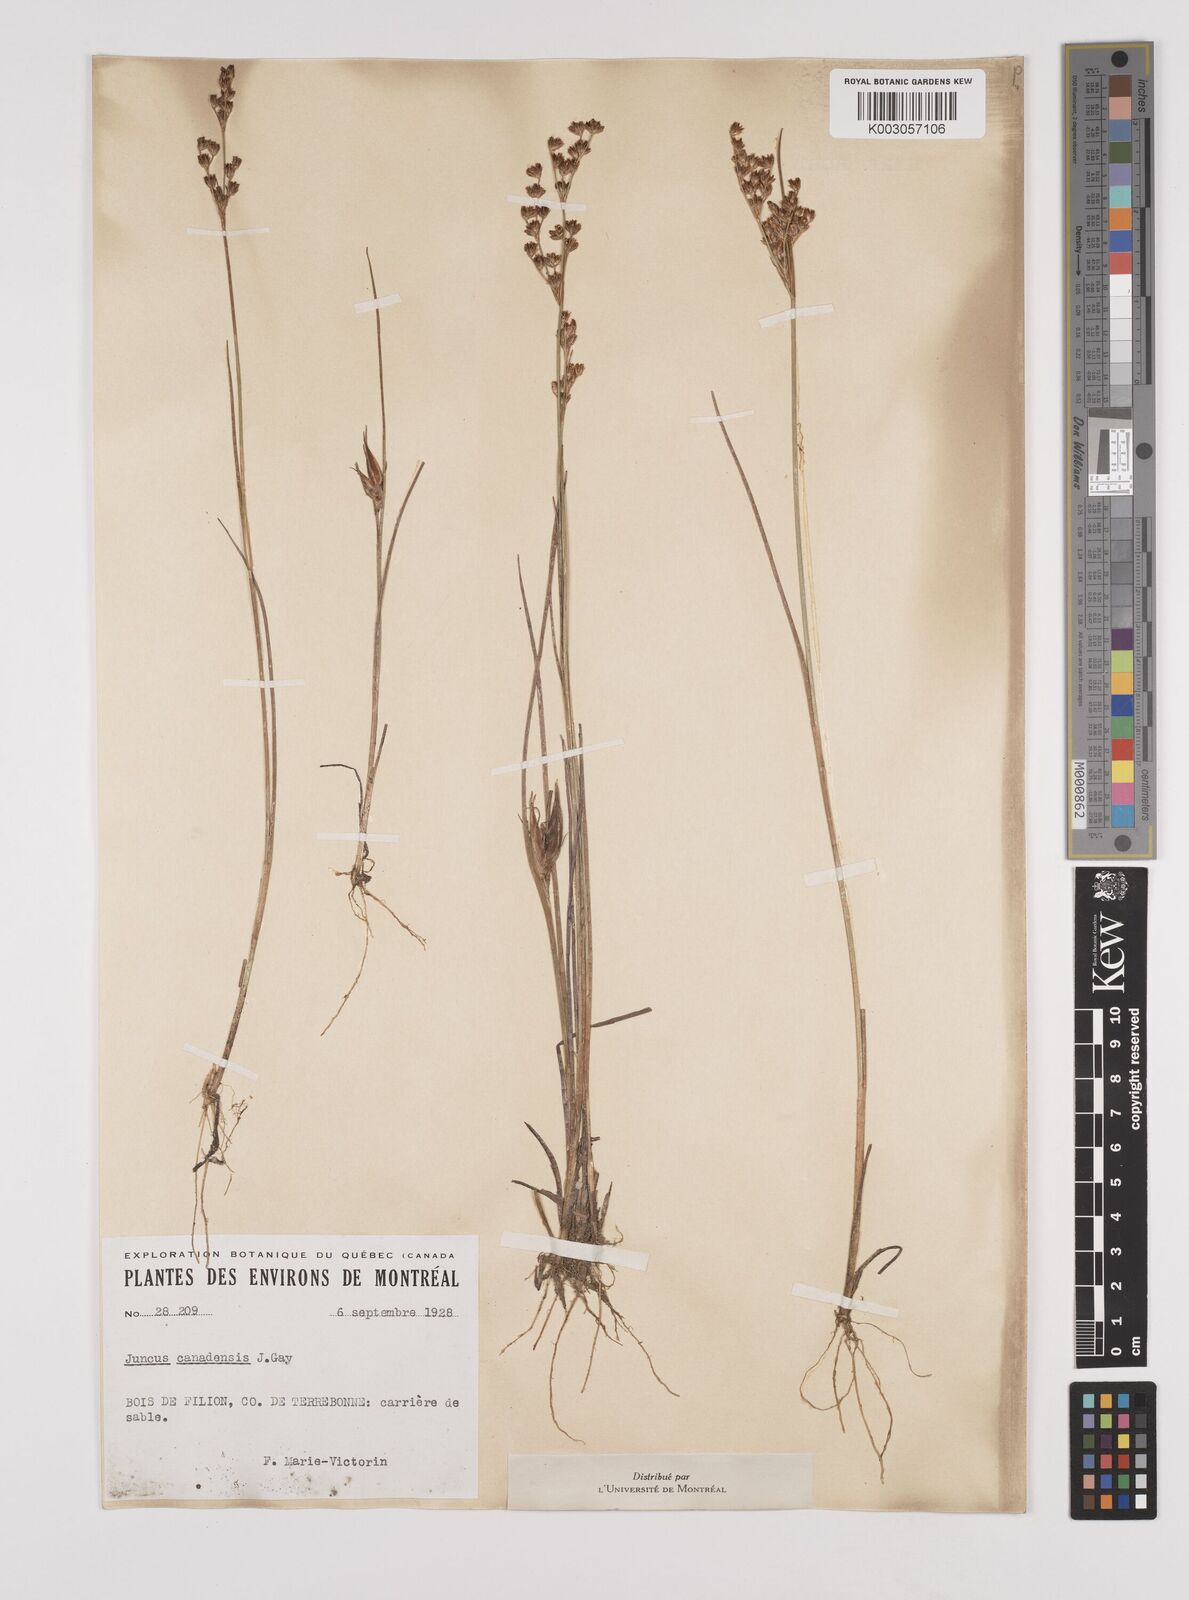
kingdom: Plantae
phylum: Tracheophyta
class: Liliopsida
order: Poales
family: Juncaceae
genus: Juncus
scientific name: Juncus canadensis
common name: Canada rush
